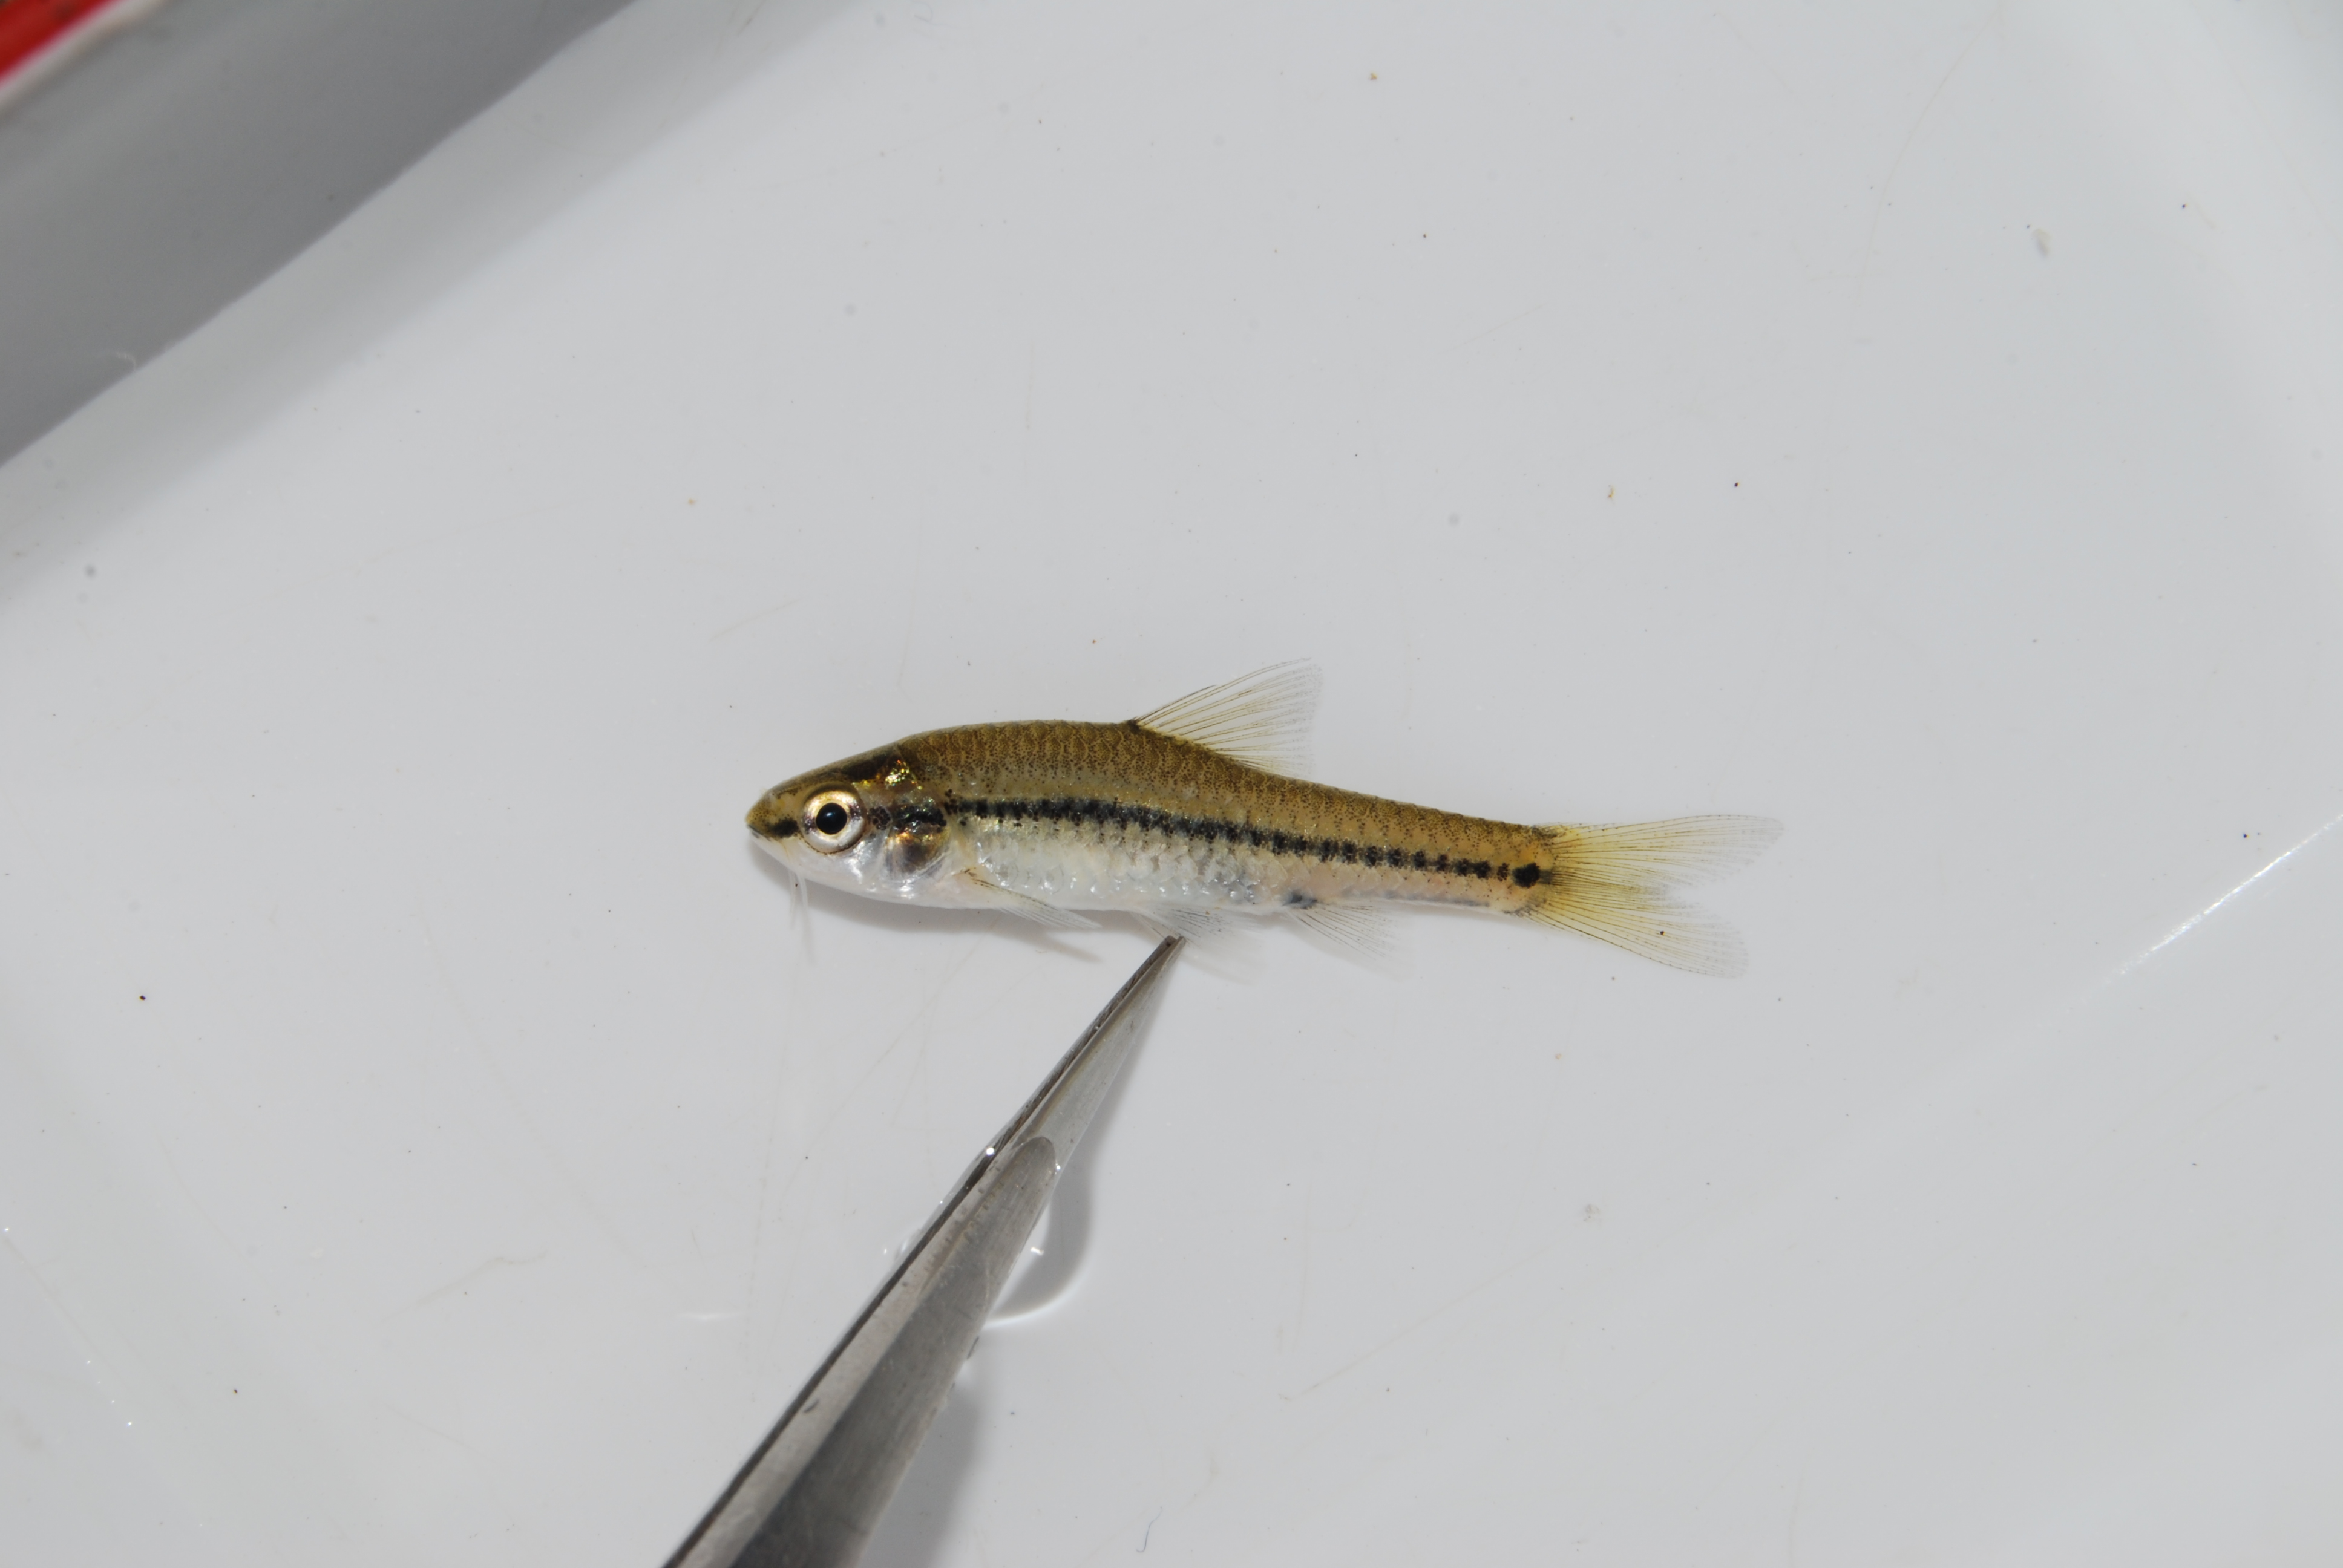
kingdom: Animalia
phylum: Chordata
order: Cypriniformes
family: Cyprinidae
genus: Enteromius
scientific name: Enteromius thamalakanensis
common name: Thamalakane barb
